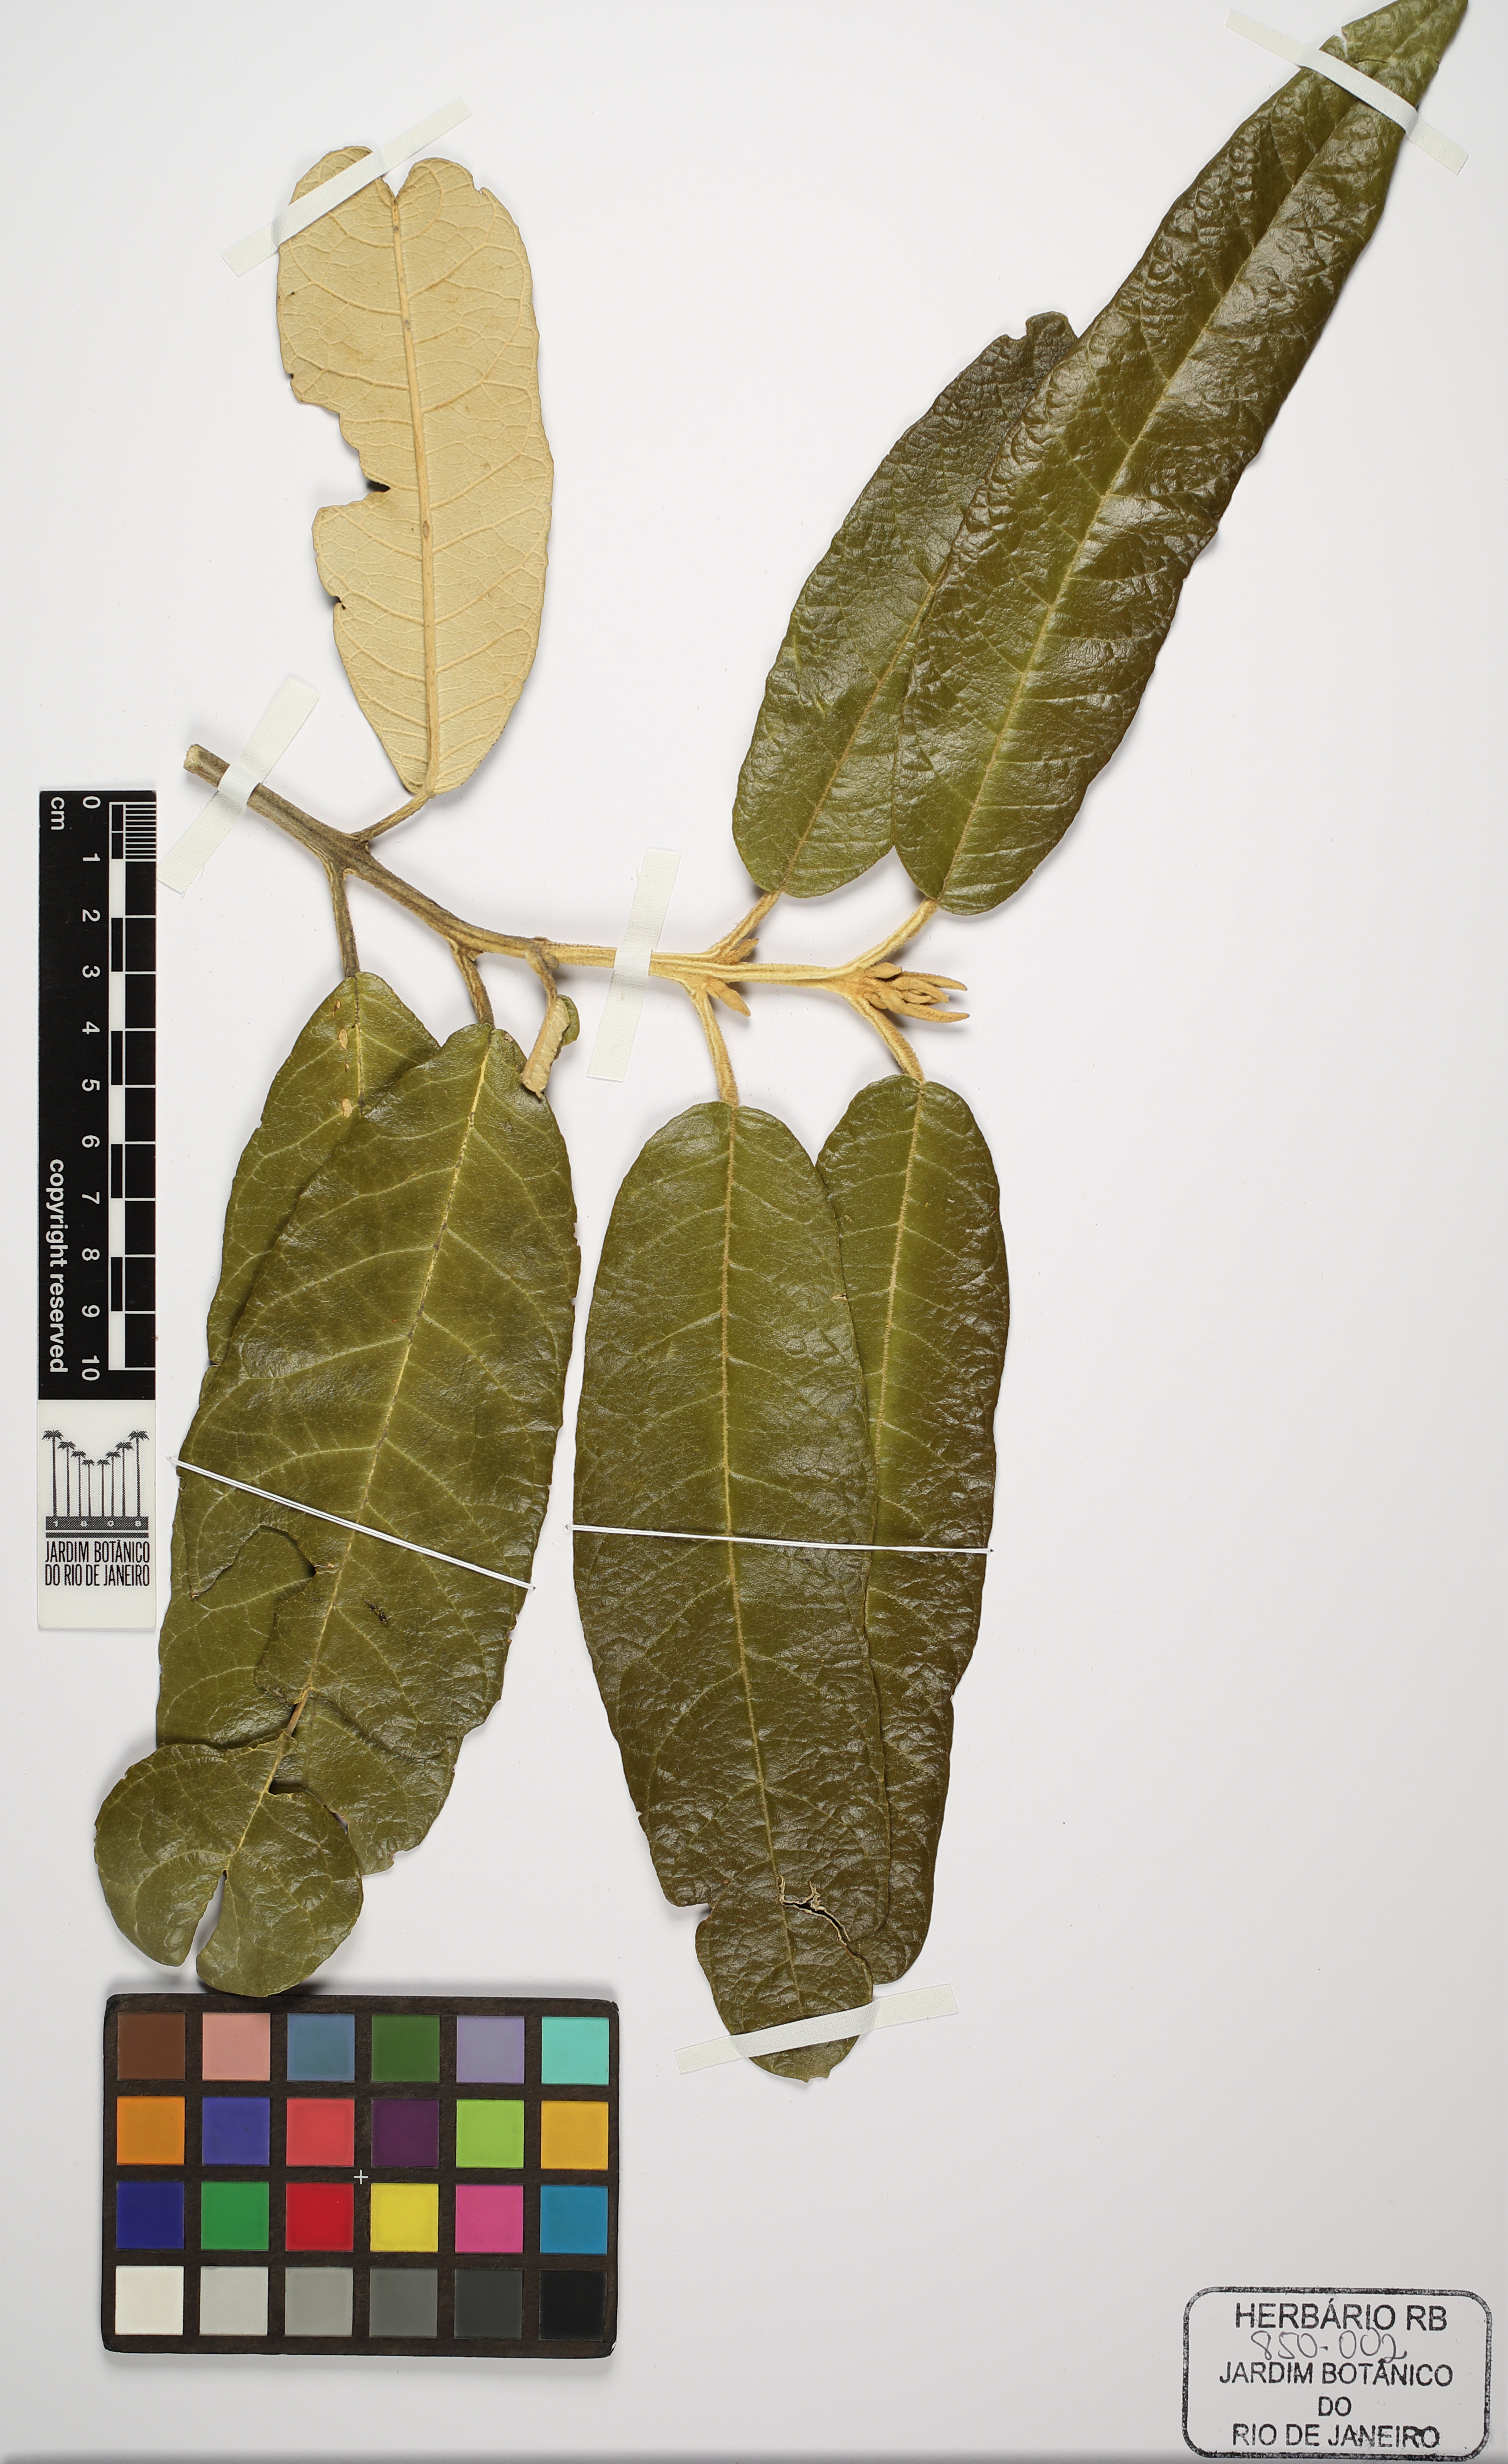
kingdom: Plantae
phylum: Tracheophyta
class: Magnoliopsida
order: Brassicales
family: Capparaceae
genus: Colicodendron
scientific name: Colicodendron yco
